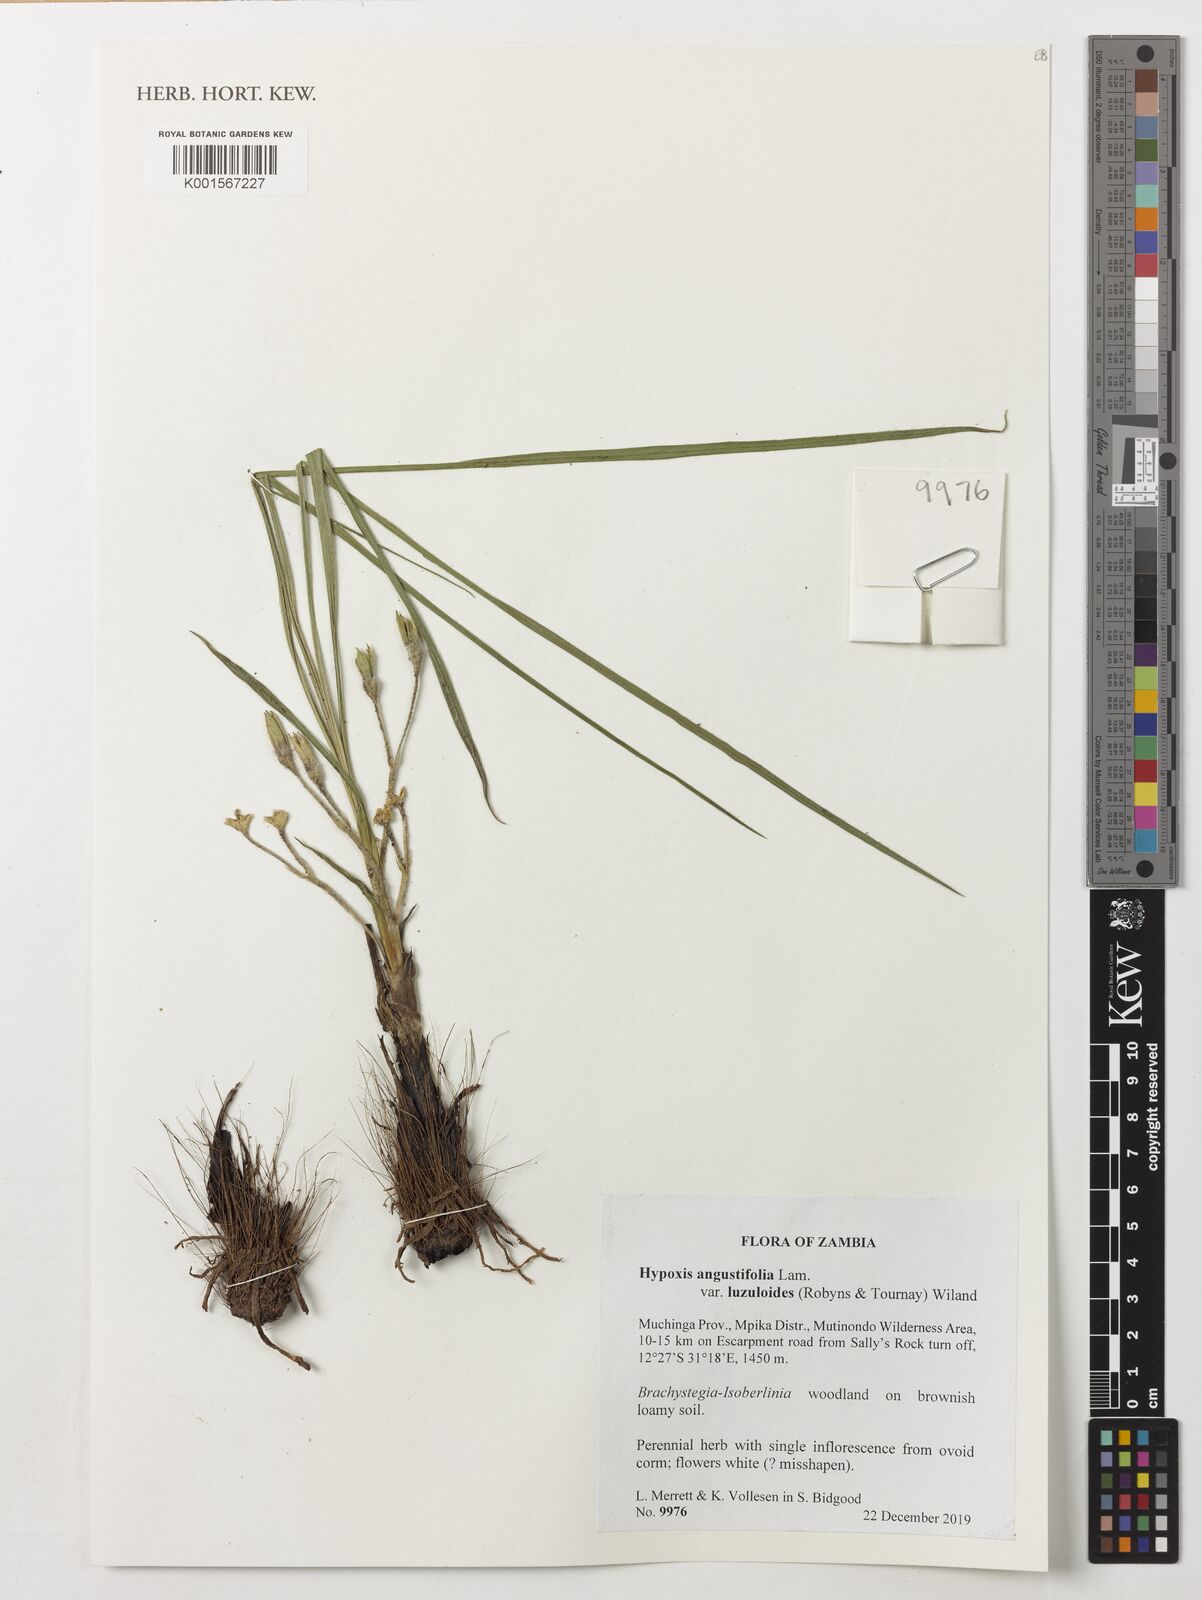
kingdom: Plantae
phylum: Tracheophyta
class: Liliopsida
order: Asparagales
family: Hypoxidaceae
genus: Hypoxis
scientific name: Hypoxis angustifolia
